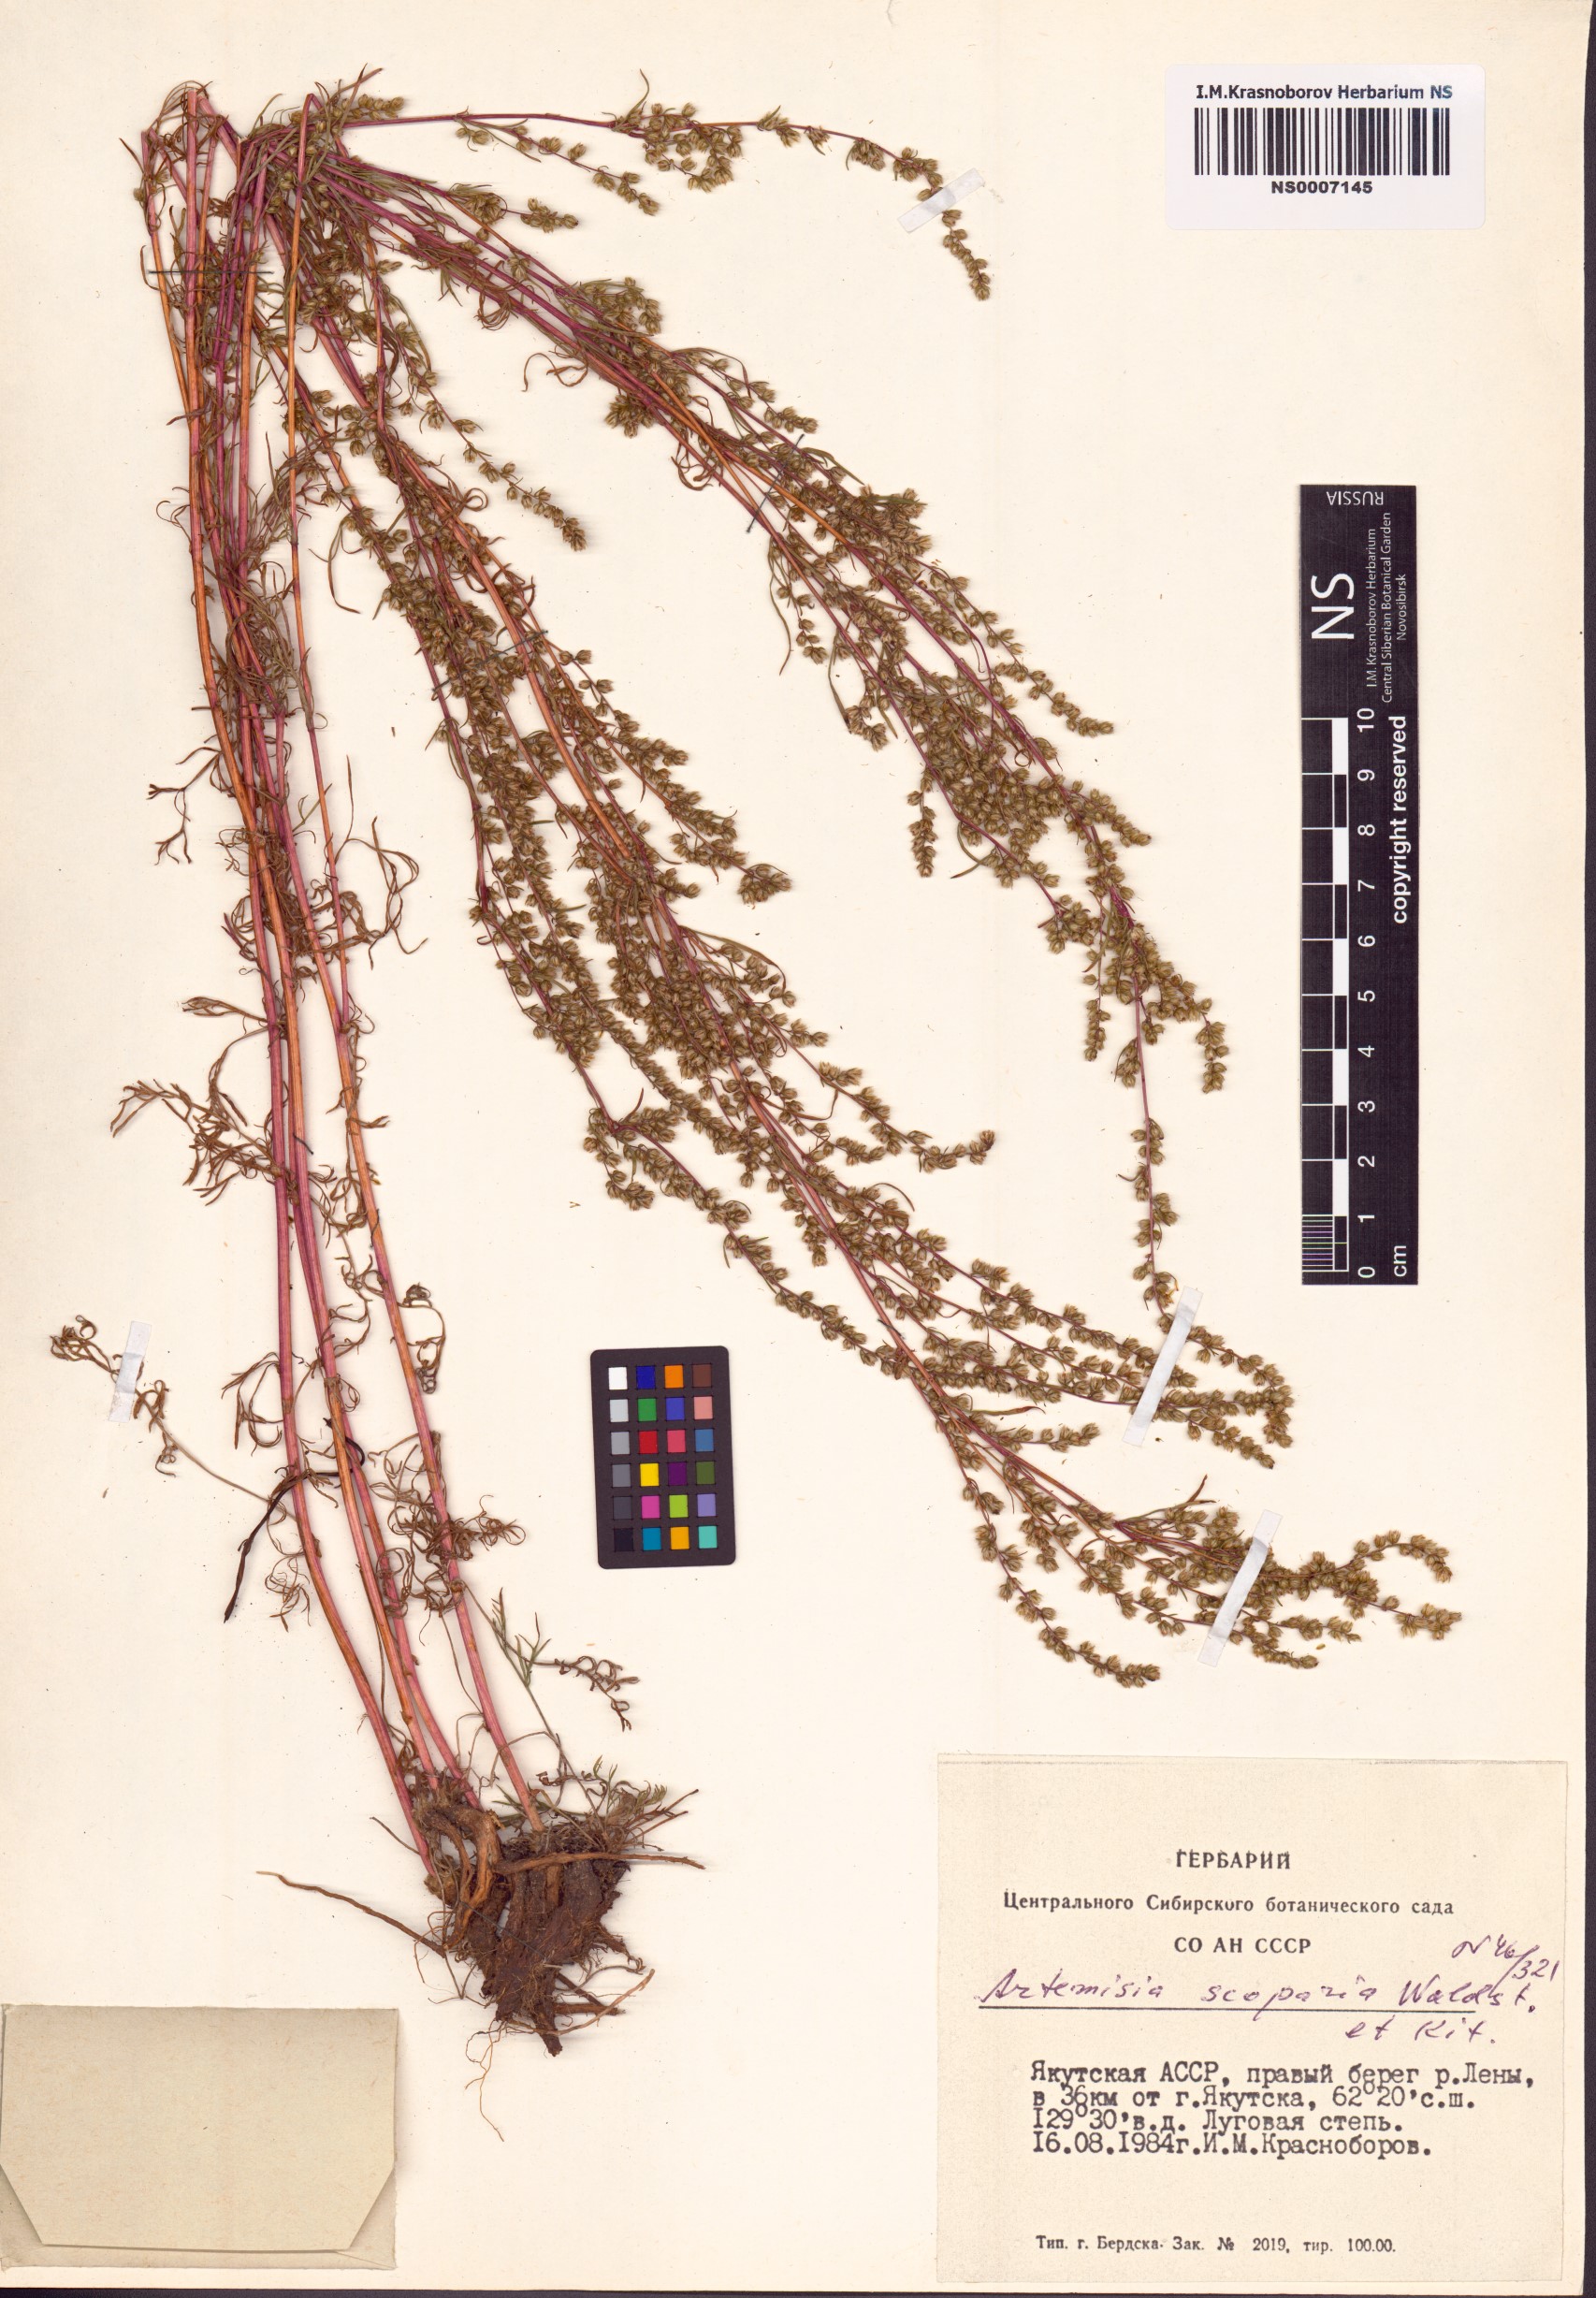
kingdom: Plantae
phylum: Tracheophyta
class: Magnoliopsida
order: Asterales
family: Asteraceae
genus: Artemisia
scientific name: Artemisia scoparia
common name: Redstem wormwood
